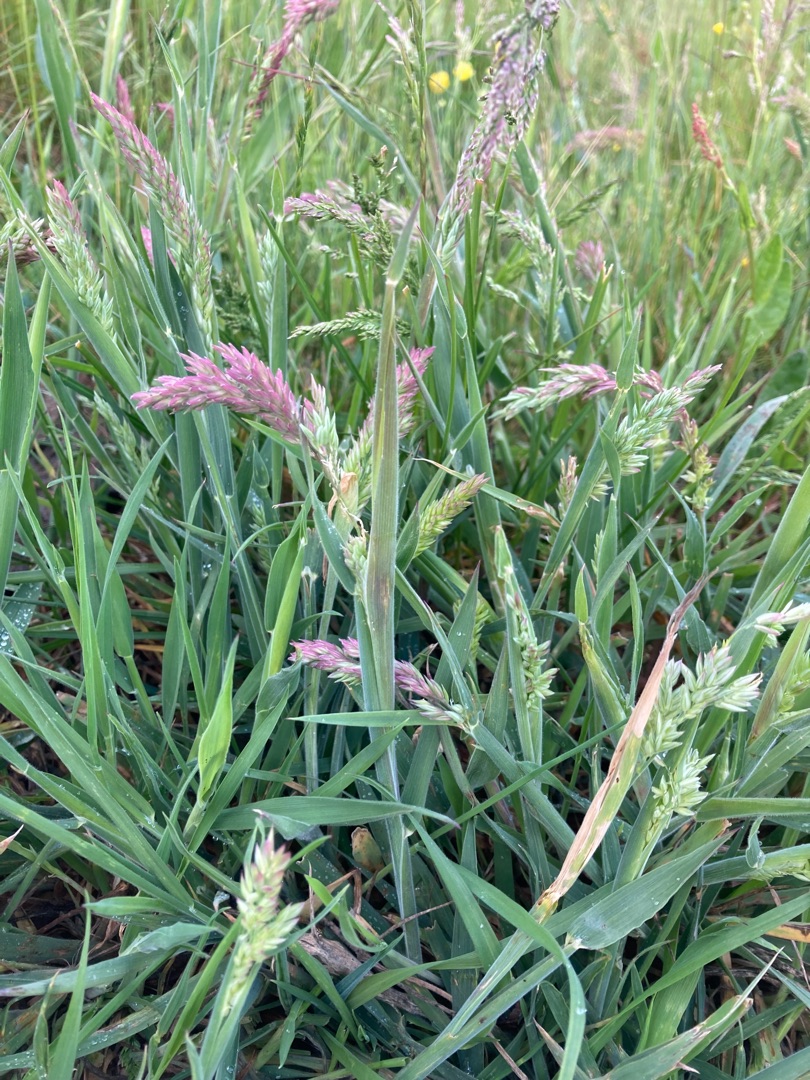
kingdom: Plantae
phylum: Tracheophyta
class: Liliopsida
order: Poales
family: Poaceae
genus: Holcus
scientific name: Holcus lanatus
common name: Fløjlsgræs
